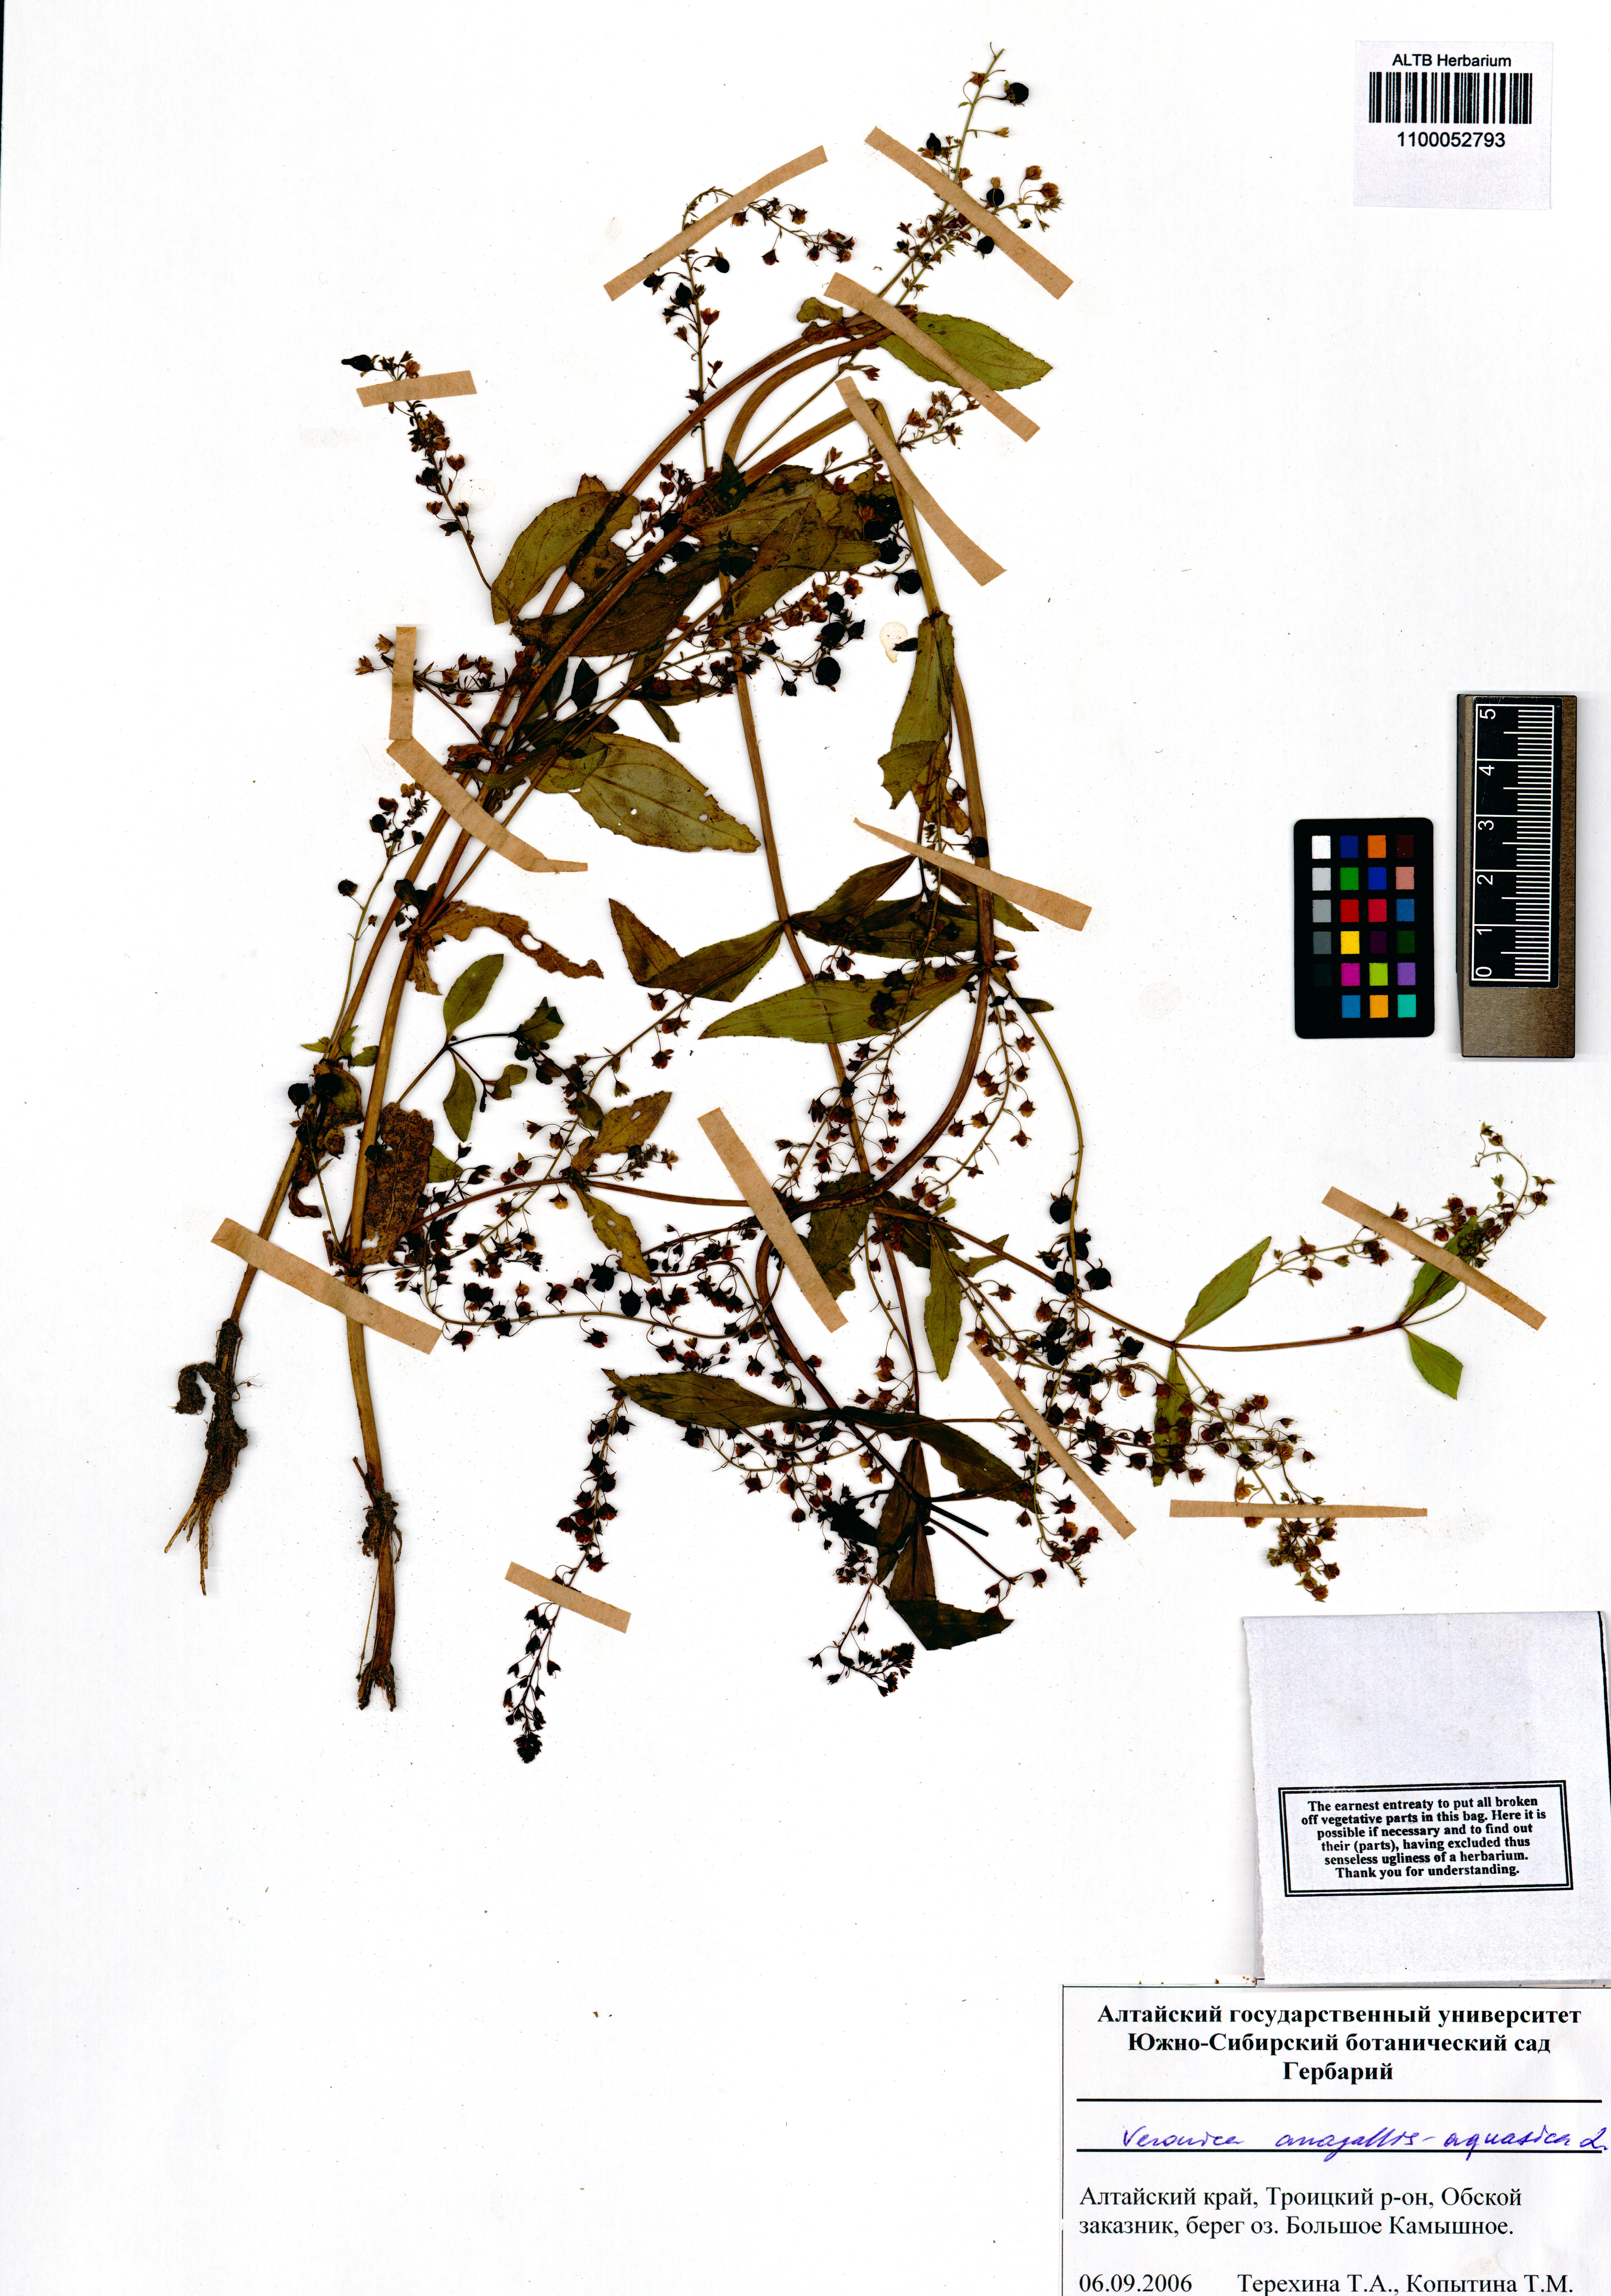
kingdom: Plantae
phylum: Tracheophyta
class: Magnoliopsida
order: Lamiales
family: Plantaginaceae
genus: Veronica
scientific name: Veronica anagallis-aquatica
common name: Water speedwell
